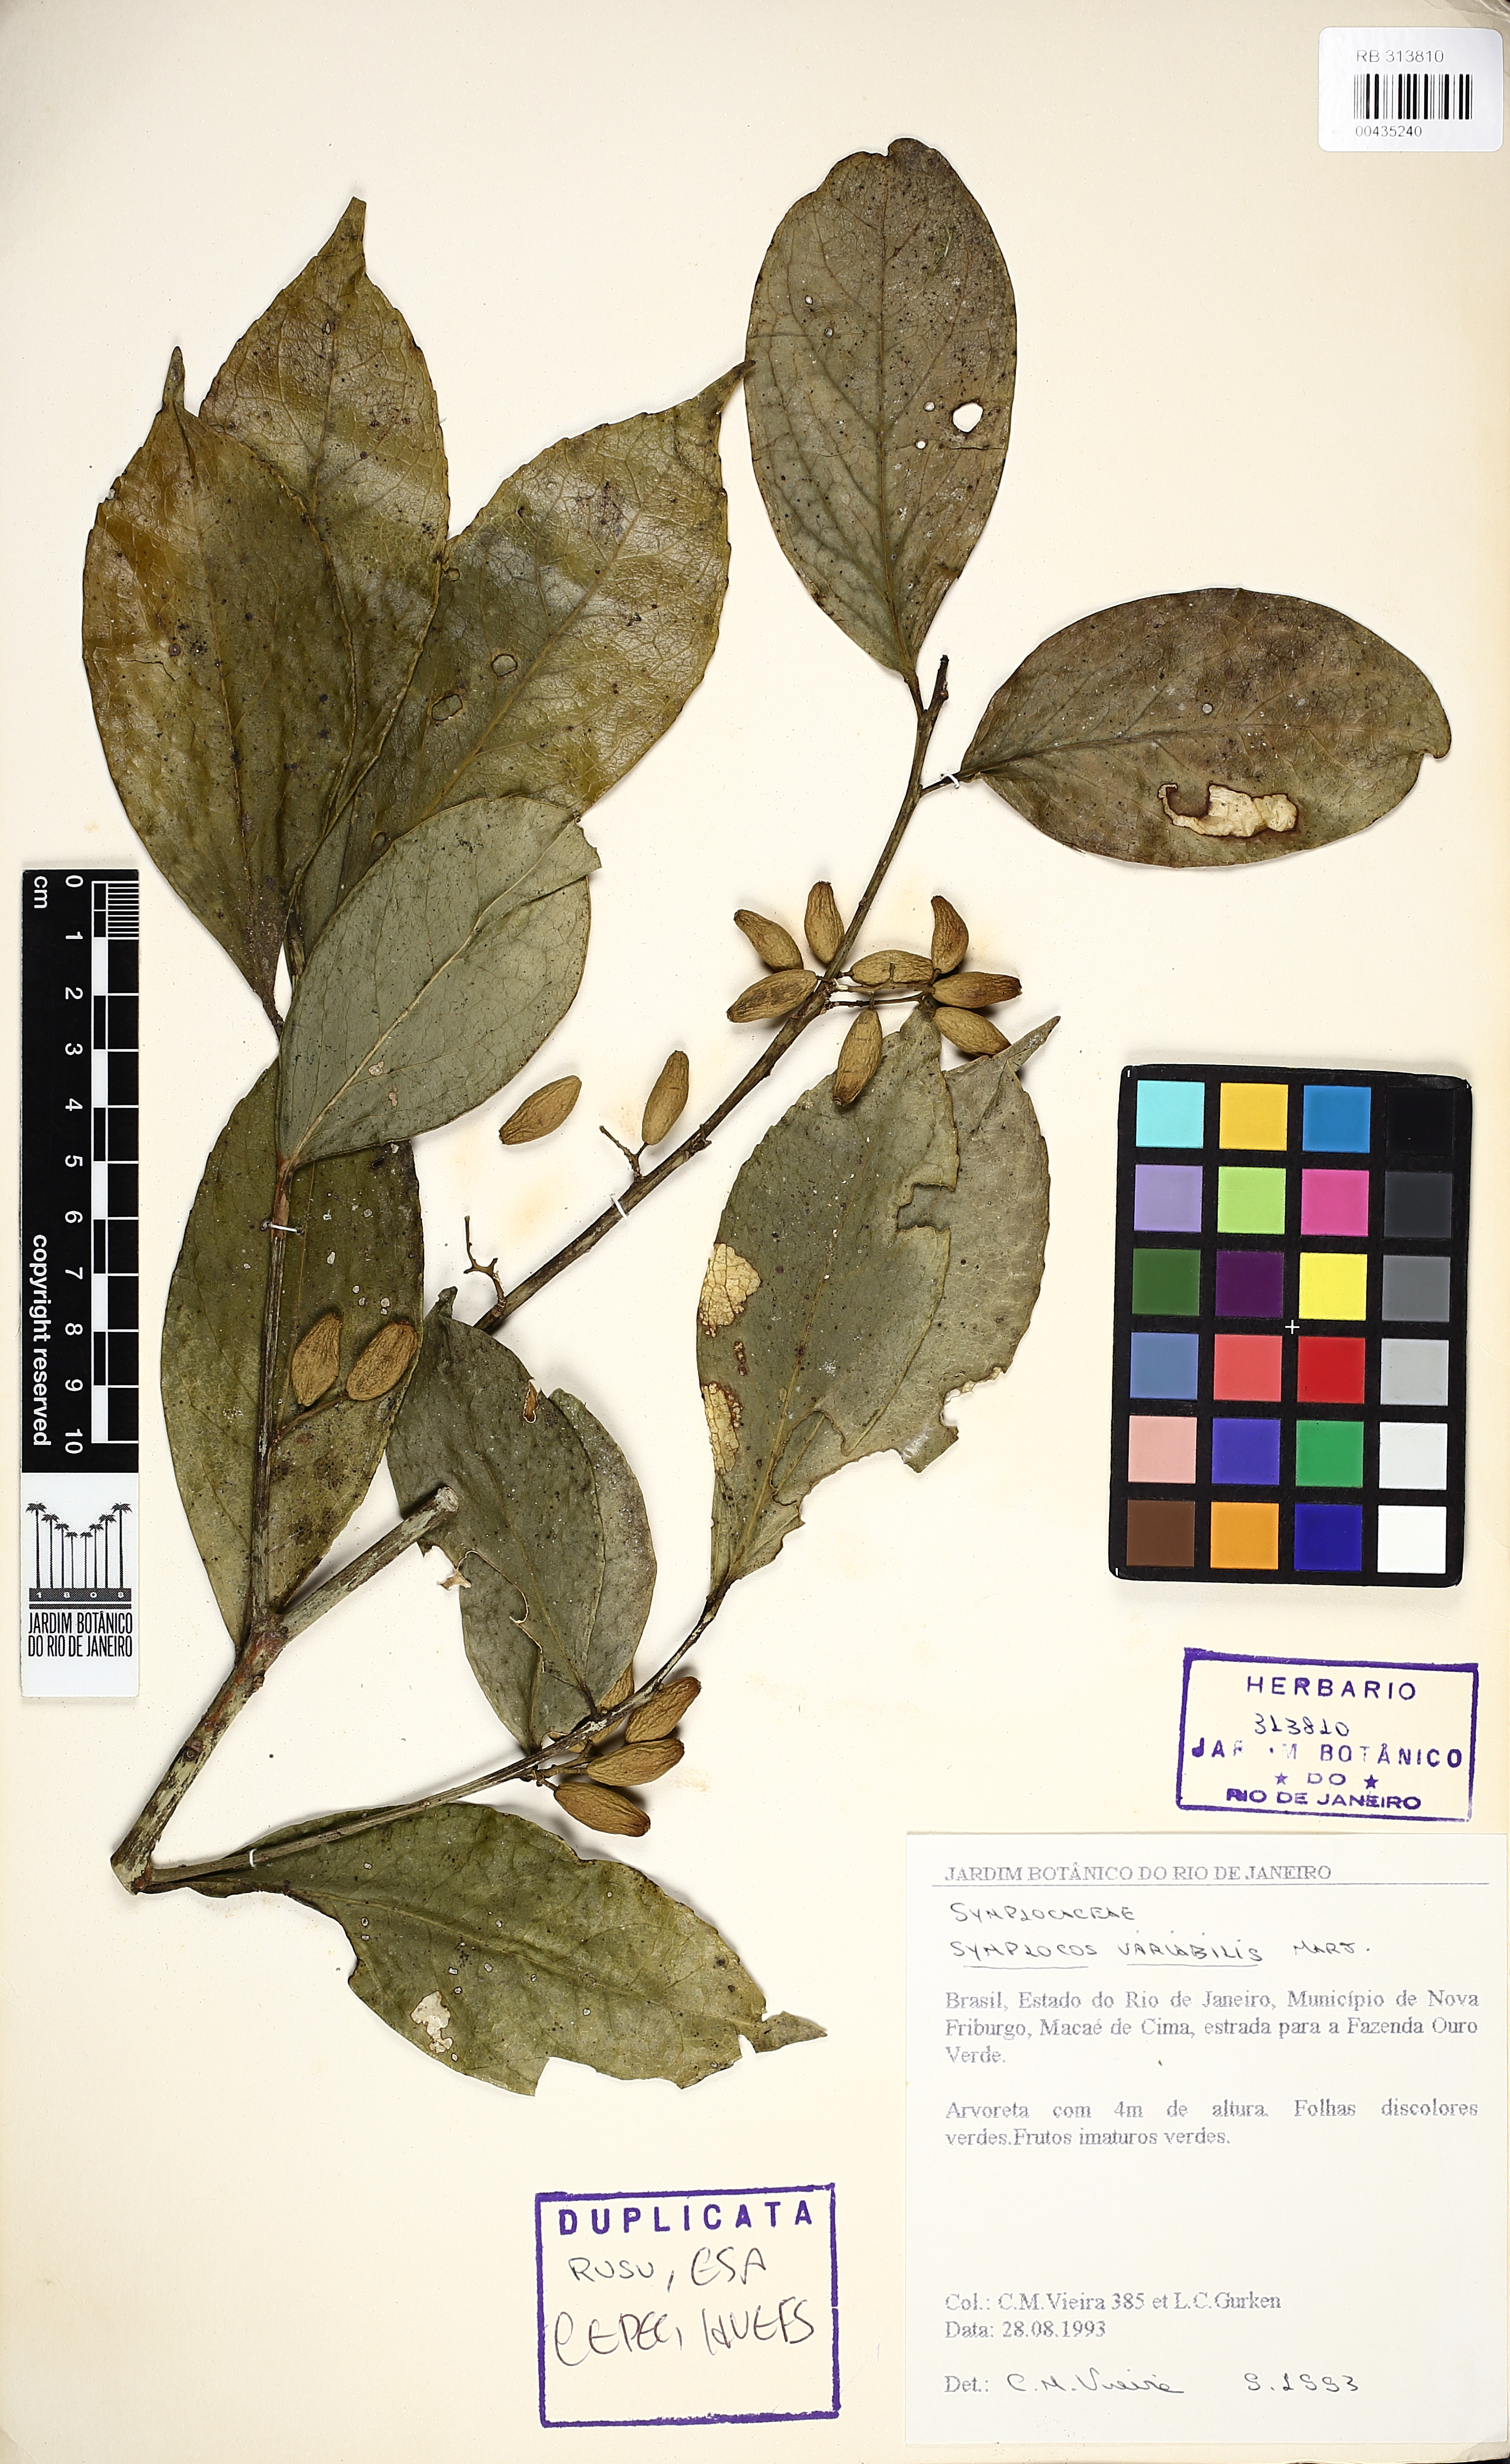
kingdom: Plantae
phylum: Tracheophyta
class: Magnoliopsida
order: Ericales
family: Symplocaceae
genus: Symplocos
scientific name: Symplocos estrellensis
